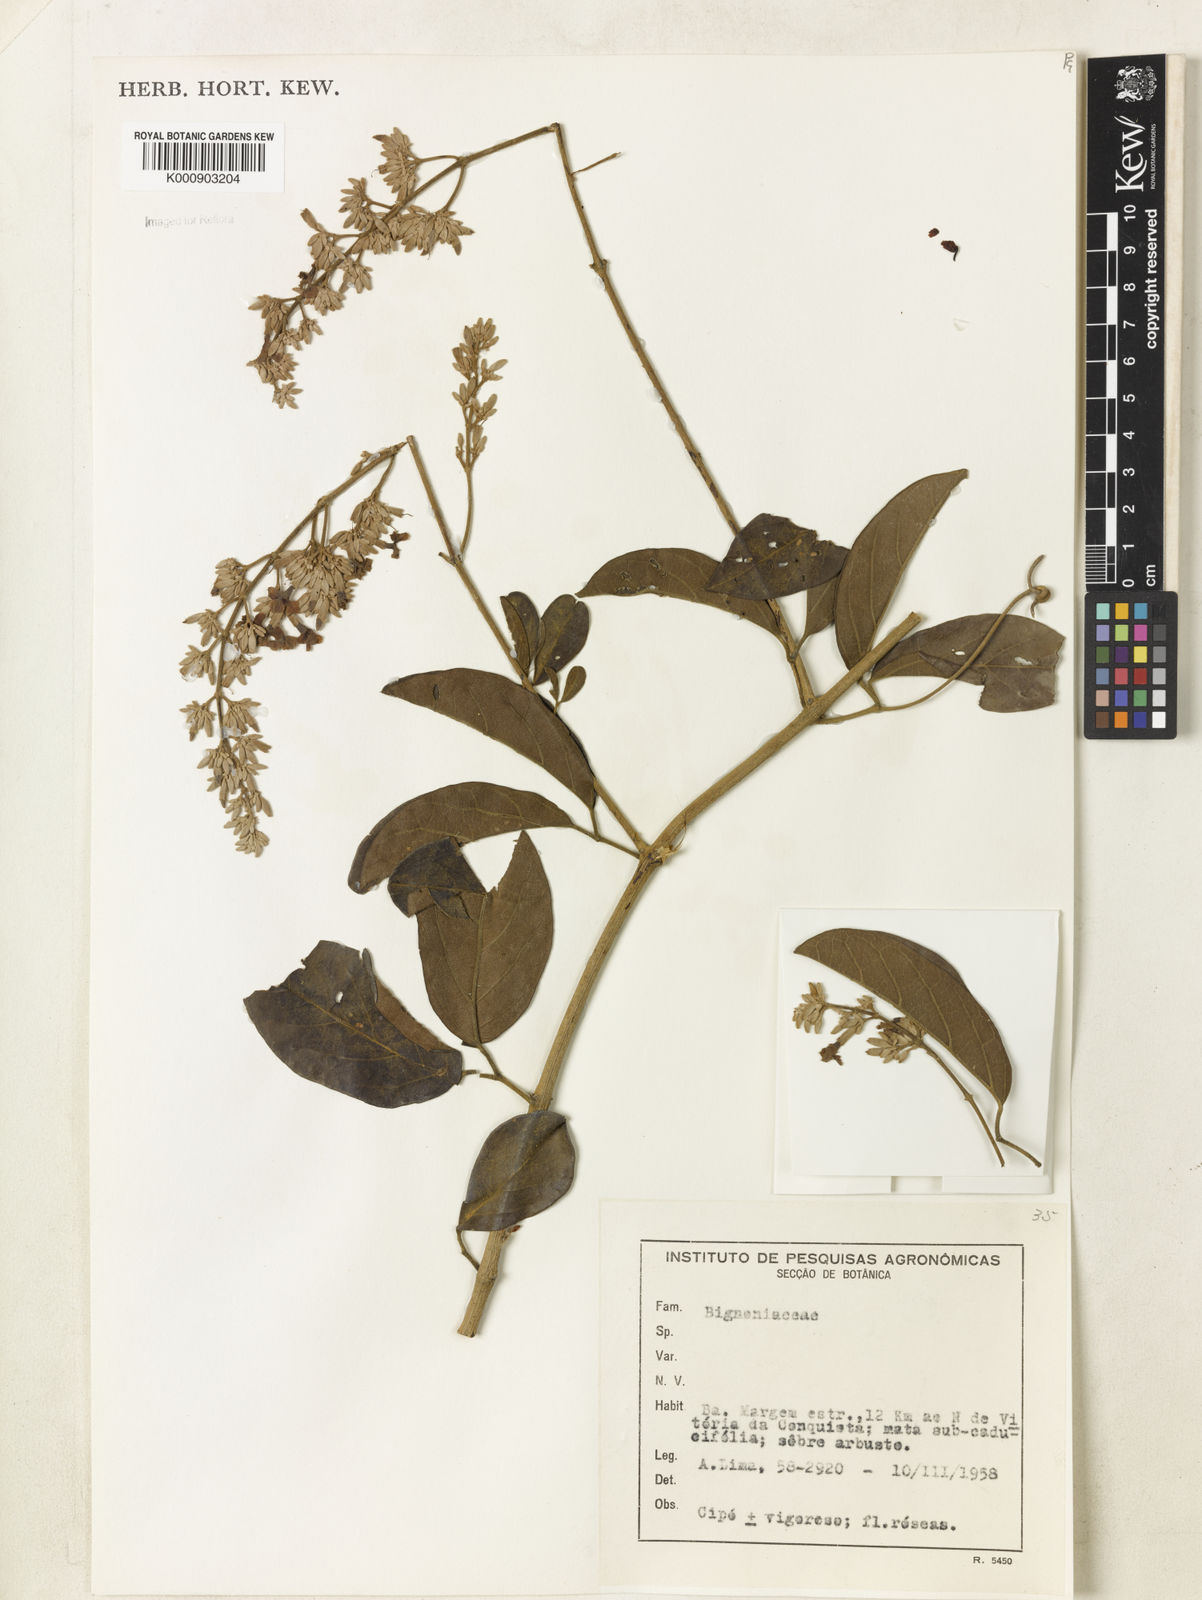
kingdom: Plantae
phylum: Tracheophyta
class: Magnoliopsida
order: Lamiales
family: Bignoniaceae
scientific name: Bignoniaceae
